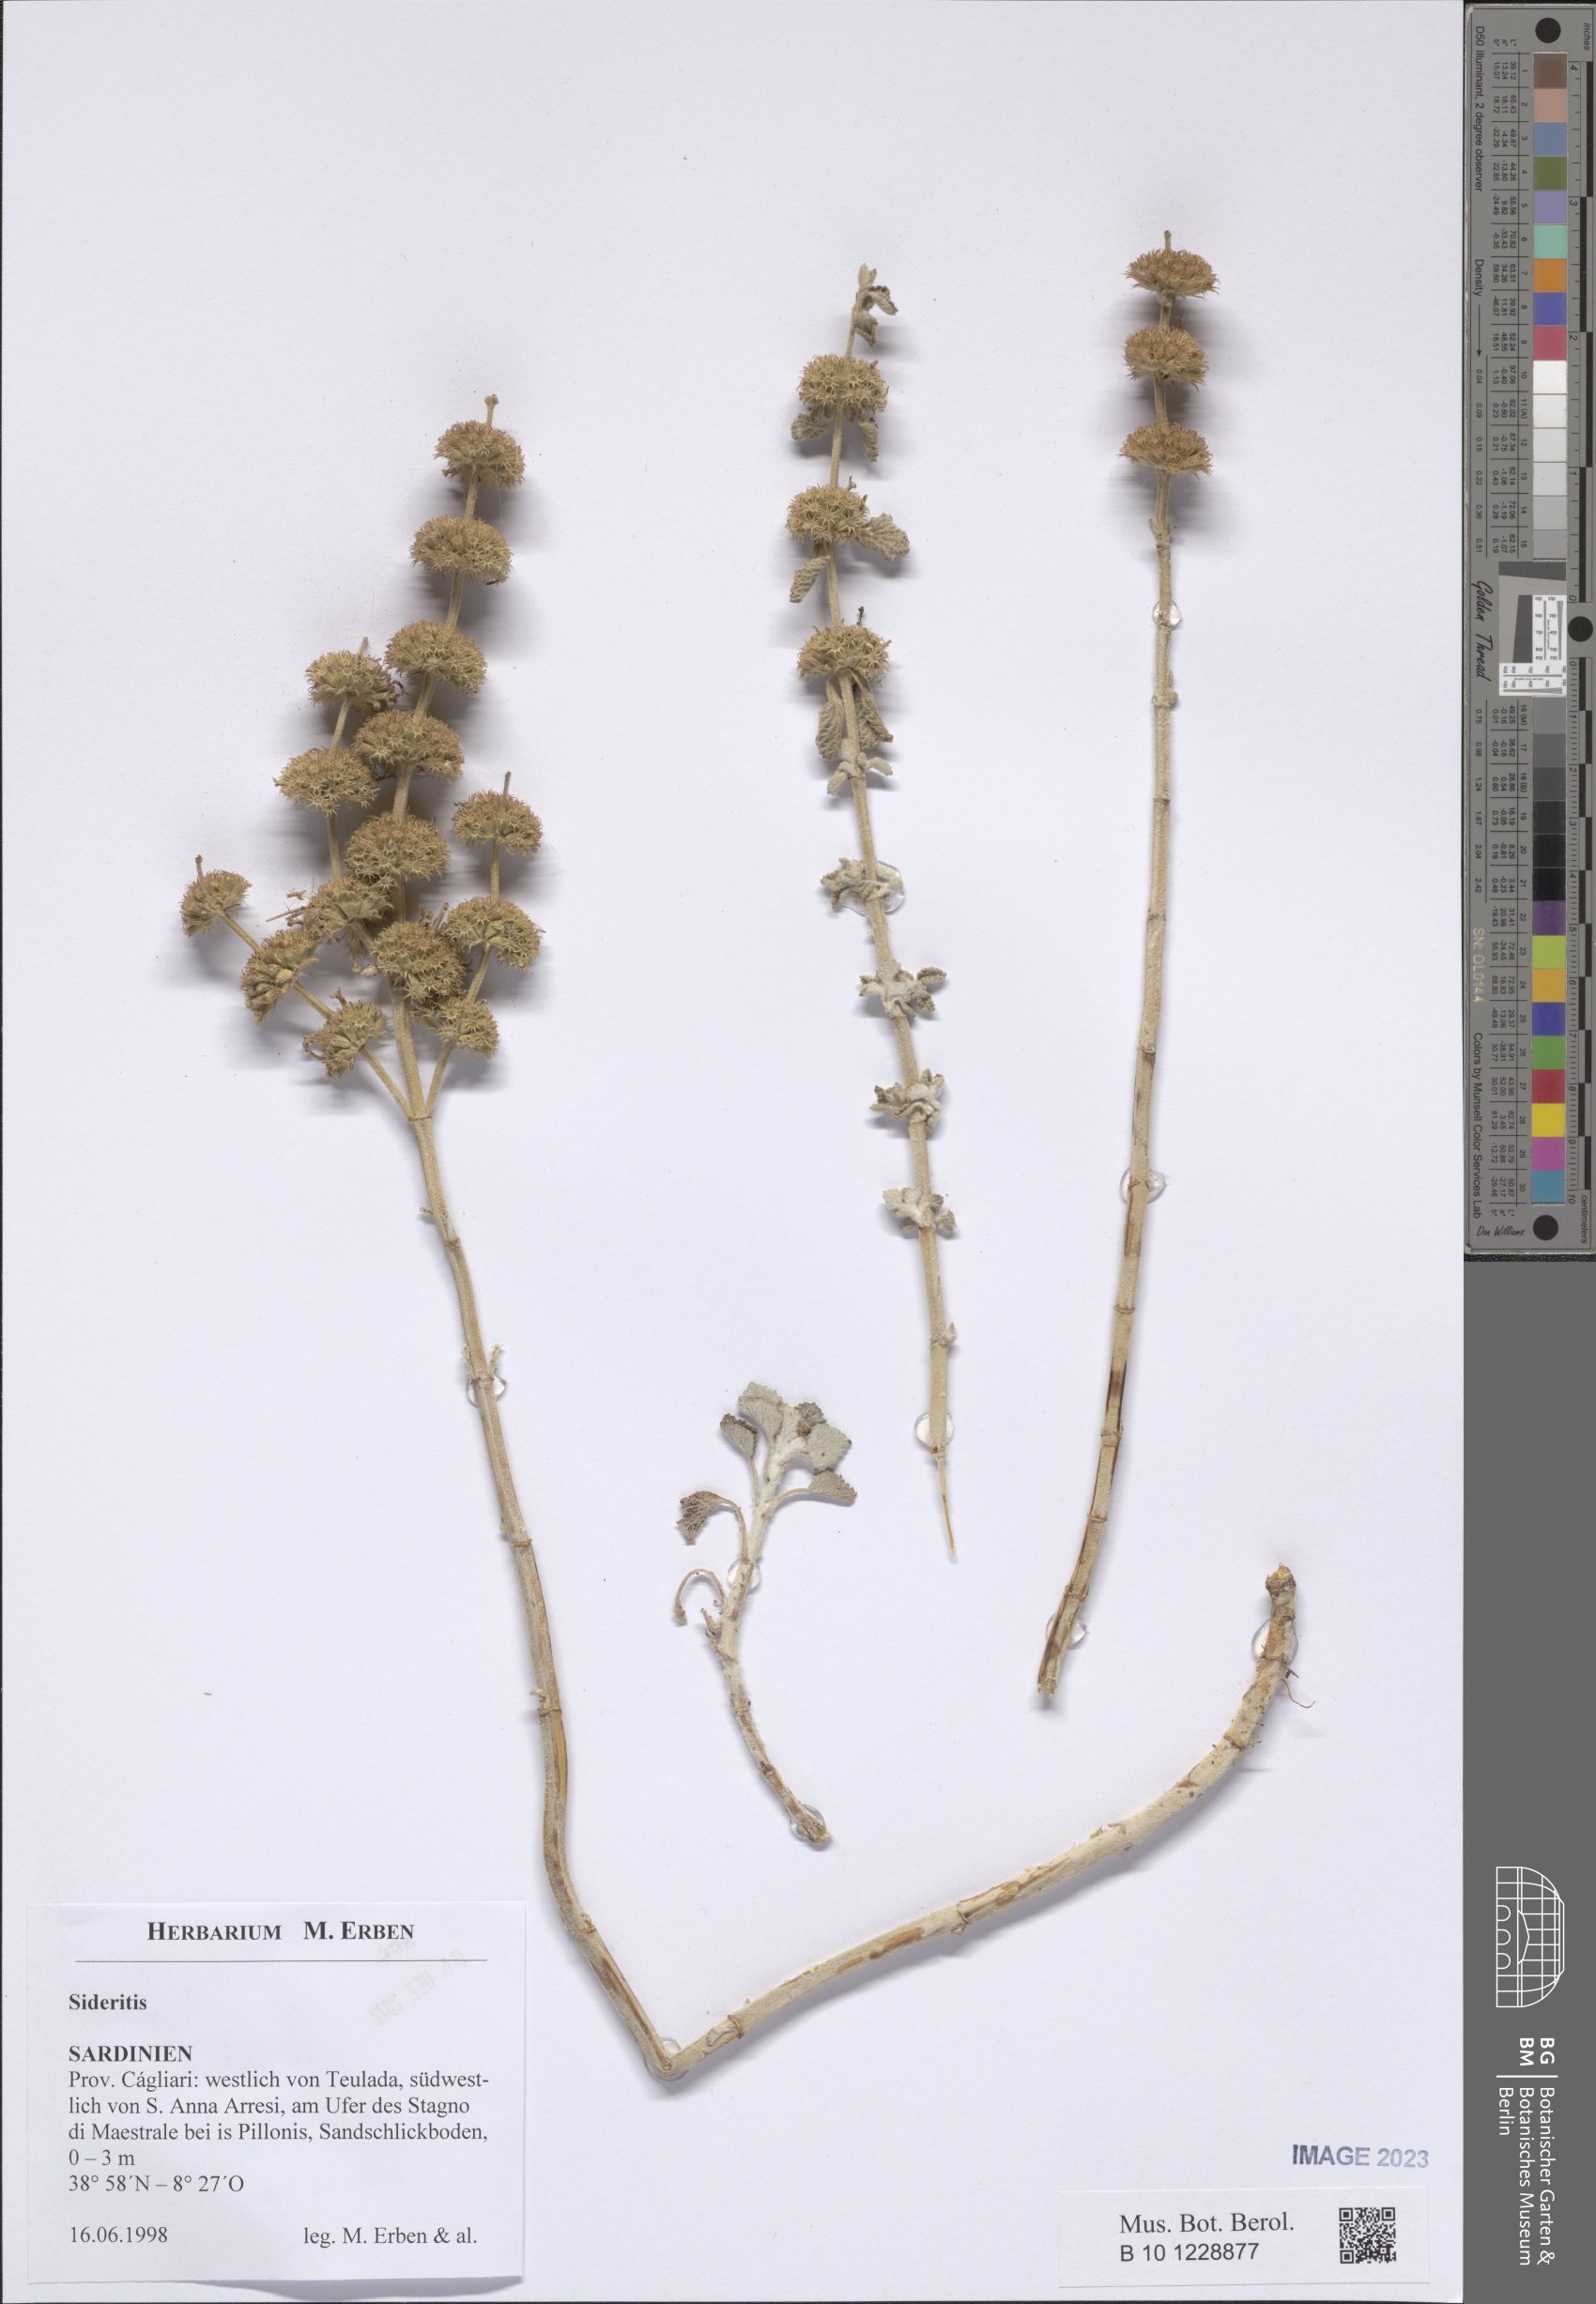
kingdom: Plantae
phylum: Tracheophyta
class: Magnoliopsida
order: Lamiales
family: Lamiaceae
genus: Sideritis
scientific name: Sideritis
